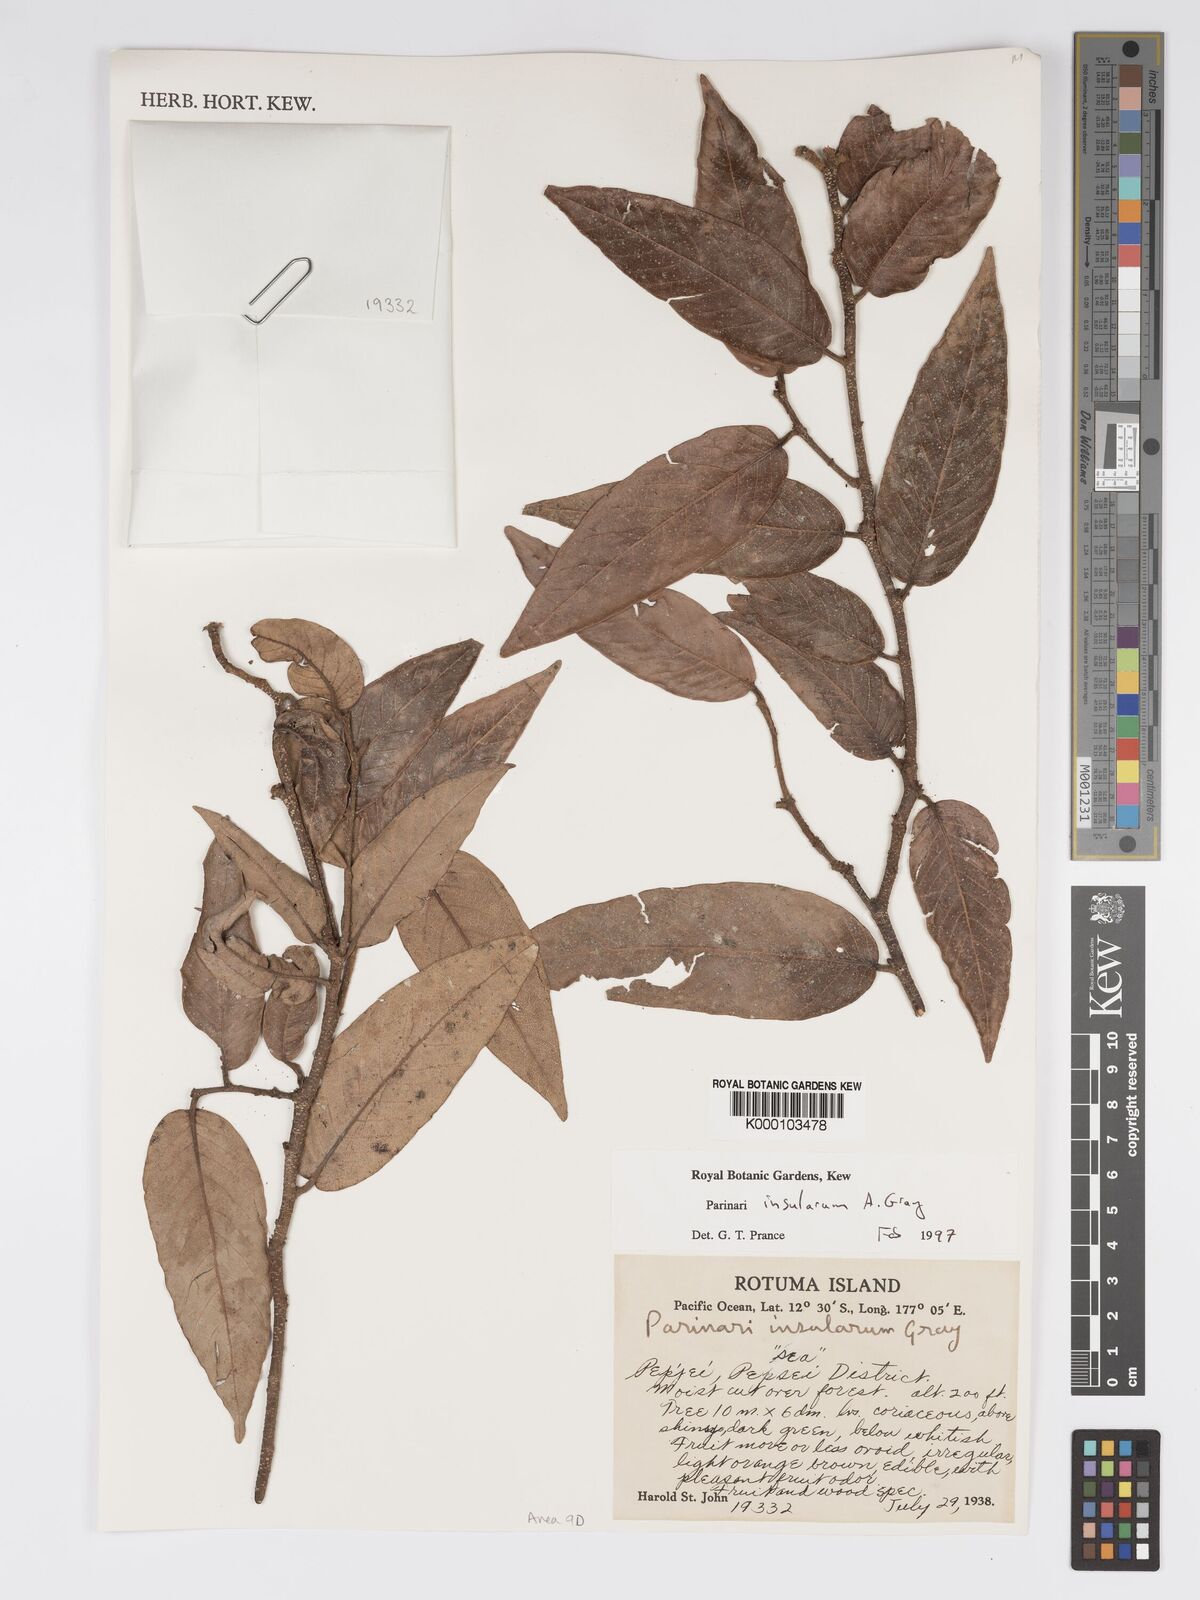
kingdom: Plantae
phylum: Tracheophyta
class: Magnoliopsida
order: Malpighiales
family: Chrysobalanaceae
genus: Parinari
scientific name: Parinari insularum
